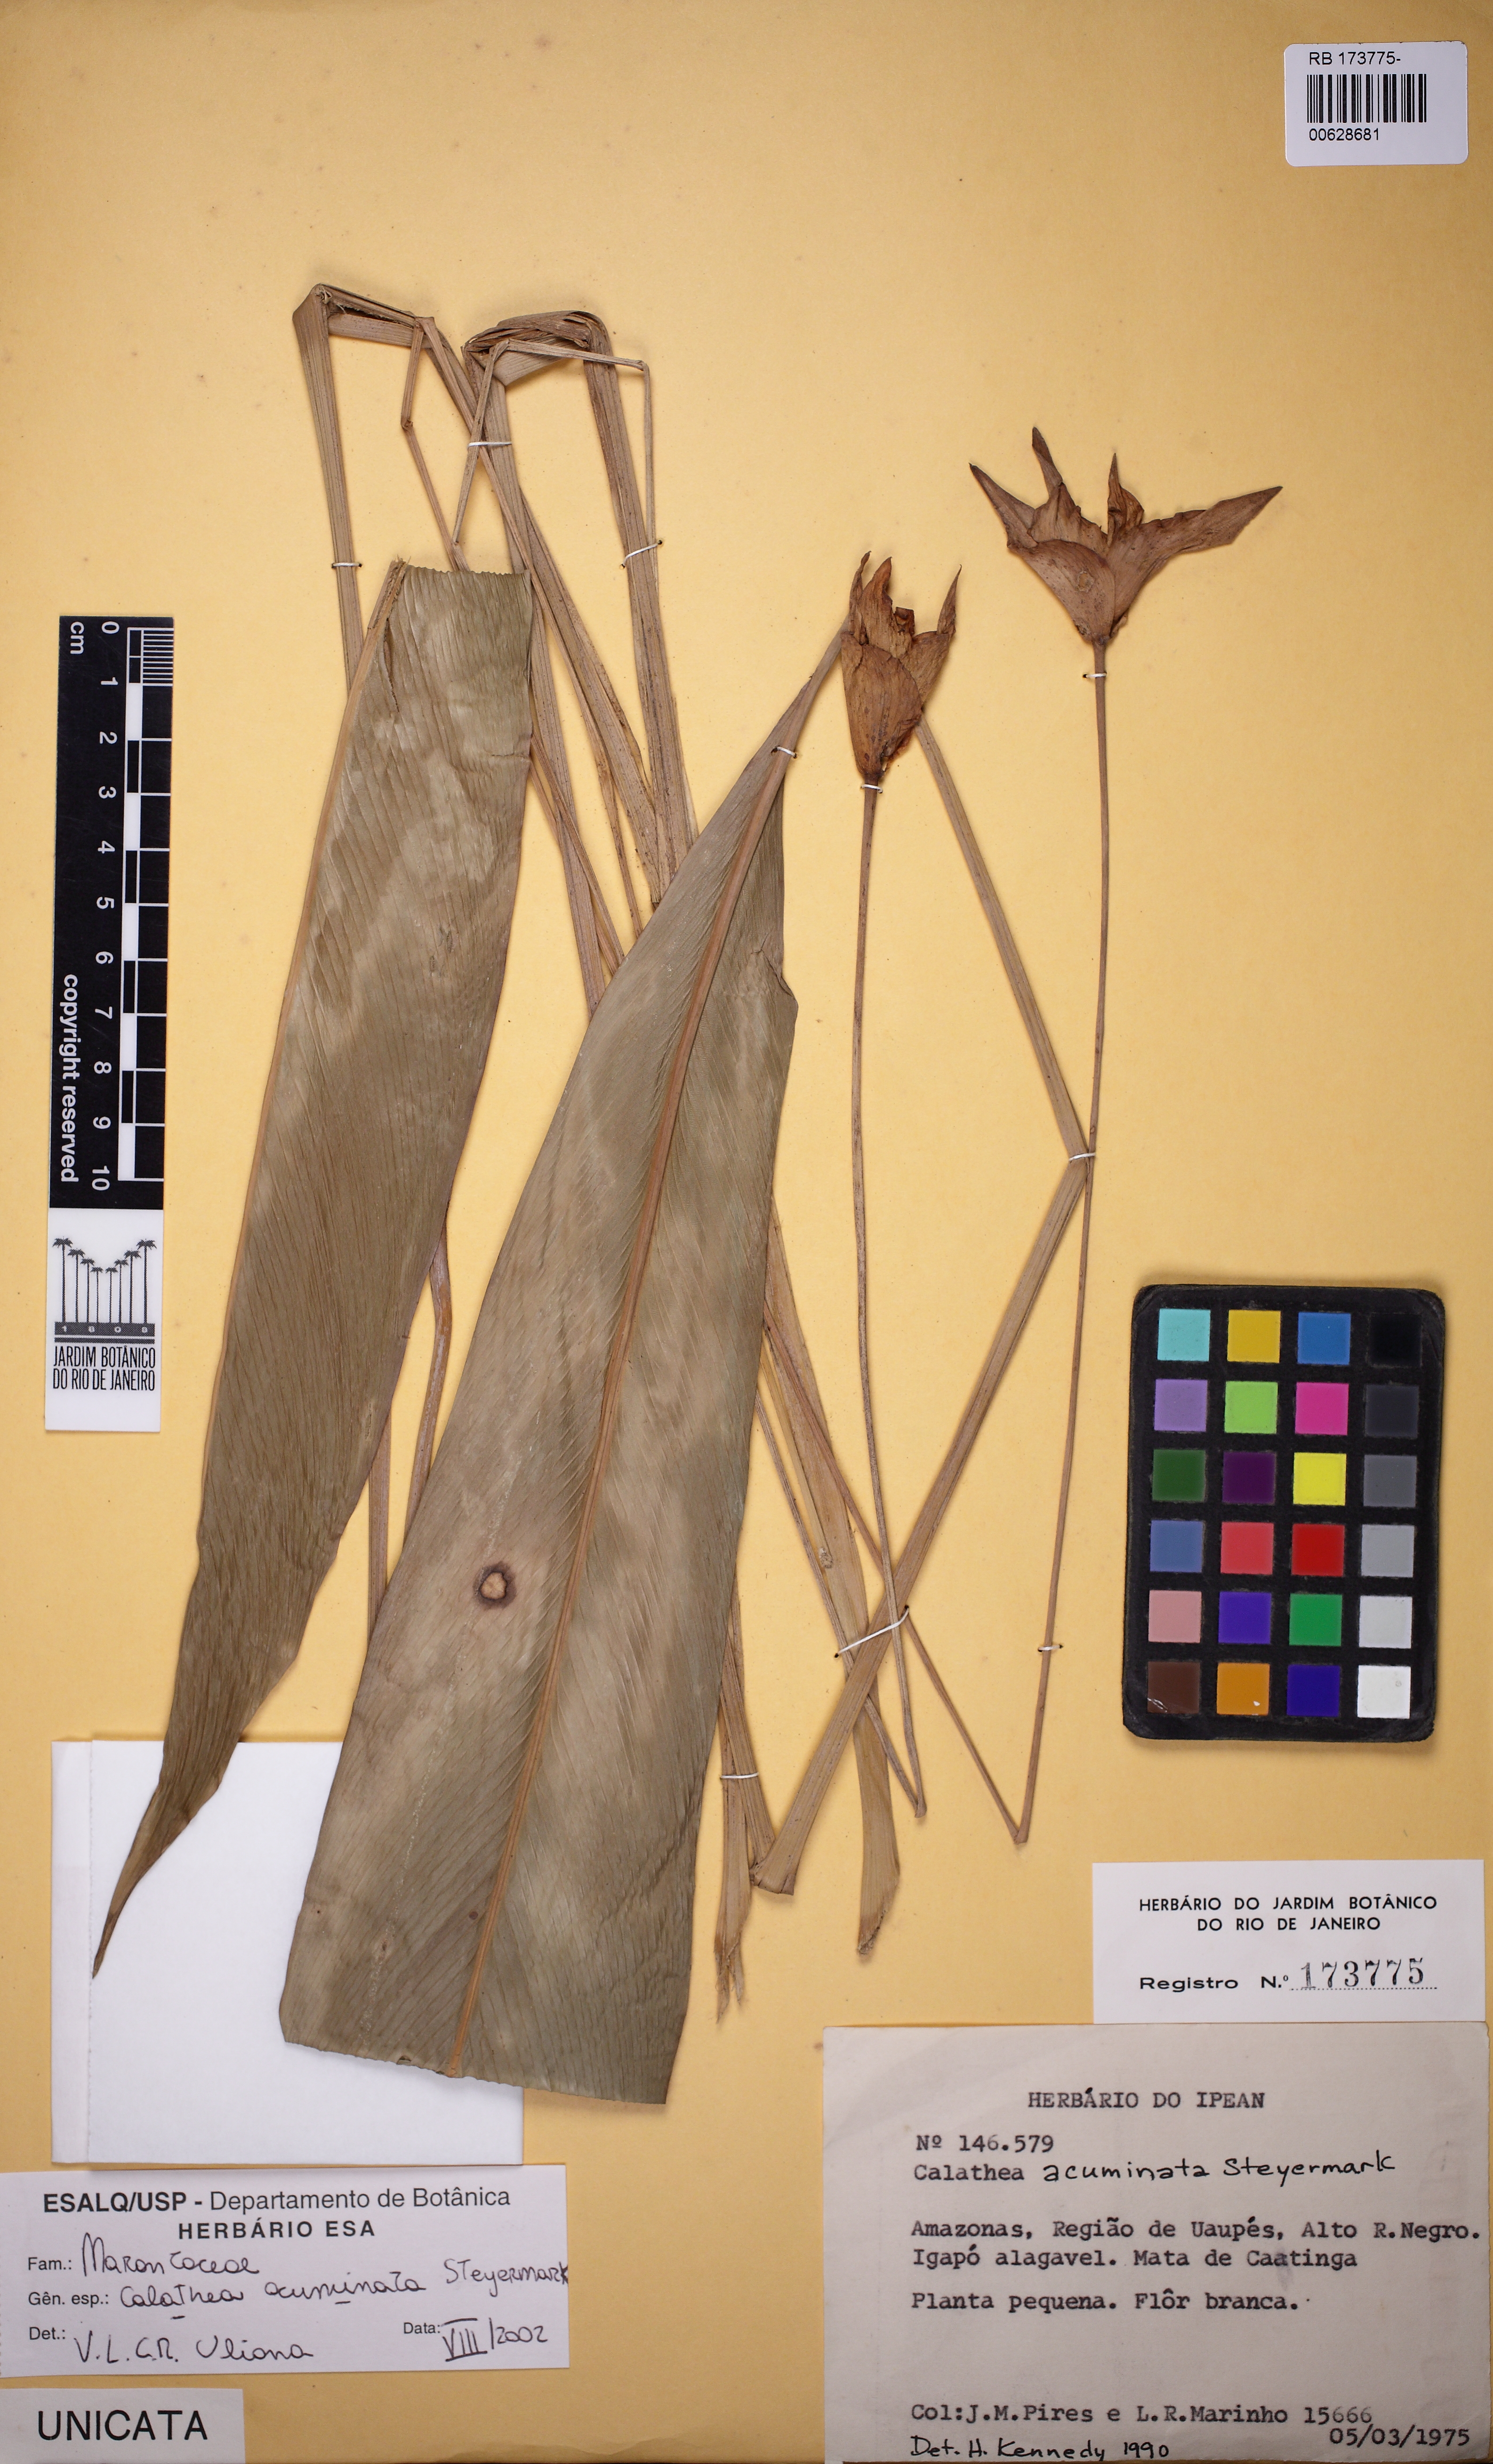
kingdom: Plantae
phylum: Tracheophyta
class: Liliopsida
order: Zingiberales
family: Marantaceae
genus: Goeppertia
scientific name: Goeppertia acuminata
